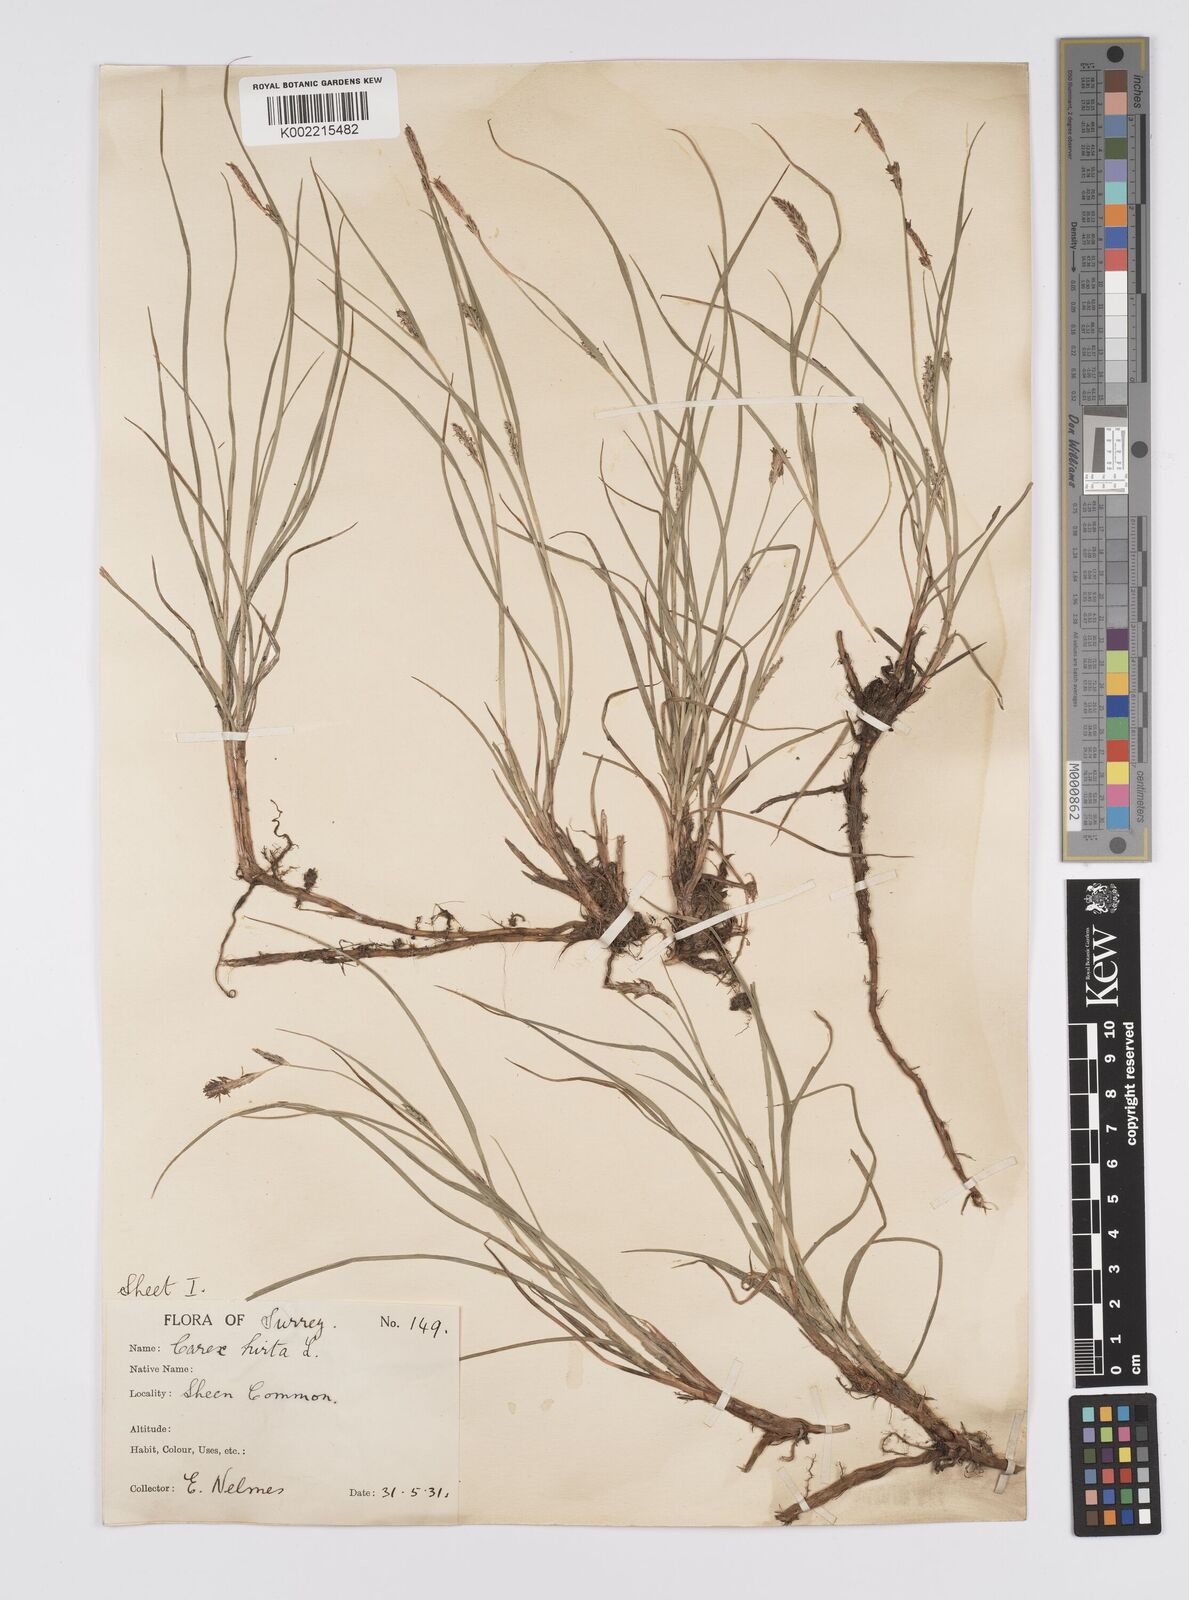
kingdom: Plantae
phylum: Tracheophyta
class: Liliopsida
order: Poales
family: Cyperaceae
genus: Carex
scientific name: Carex hirta
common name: Hairy sedge
